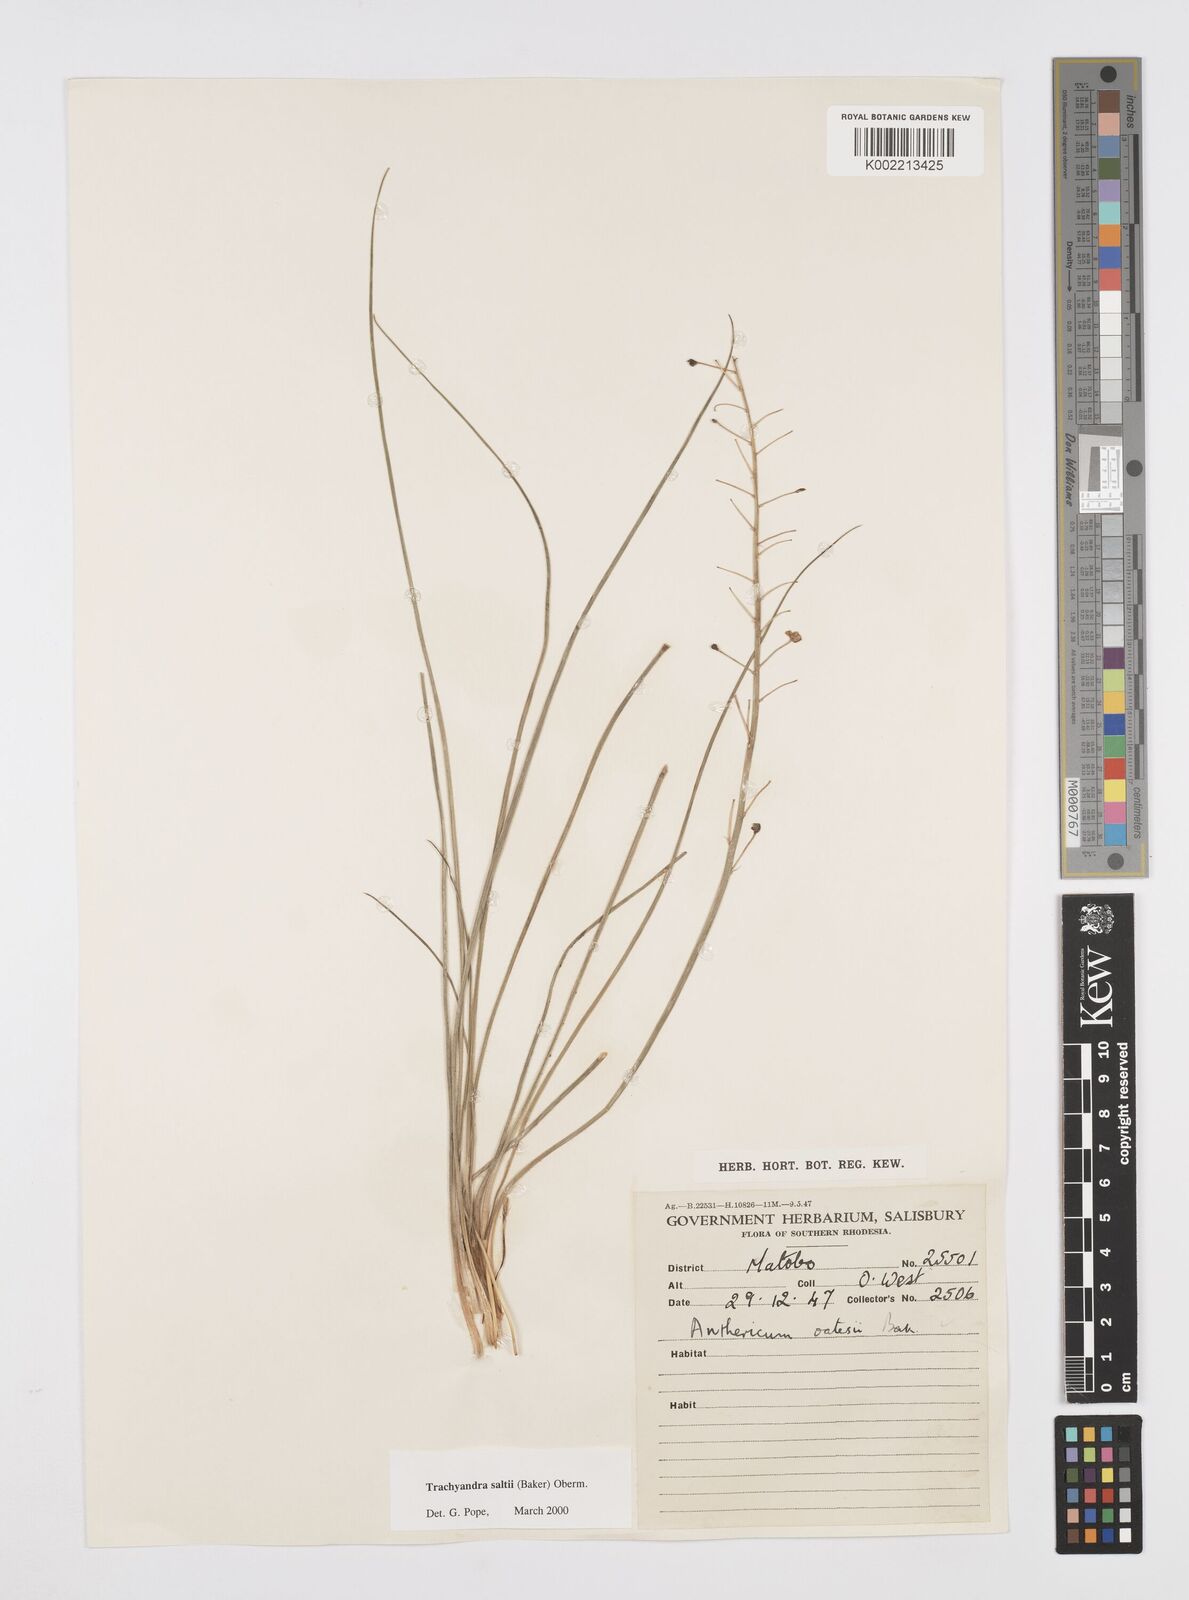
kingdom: Plantae
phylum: Tracheophyta
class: Liliopsida
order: Asparagales
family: Asphodelaceae
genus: Trachyandra
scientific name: Trachyandra saltii
